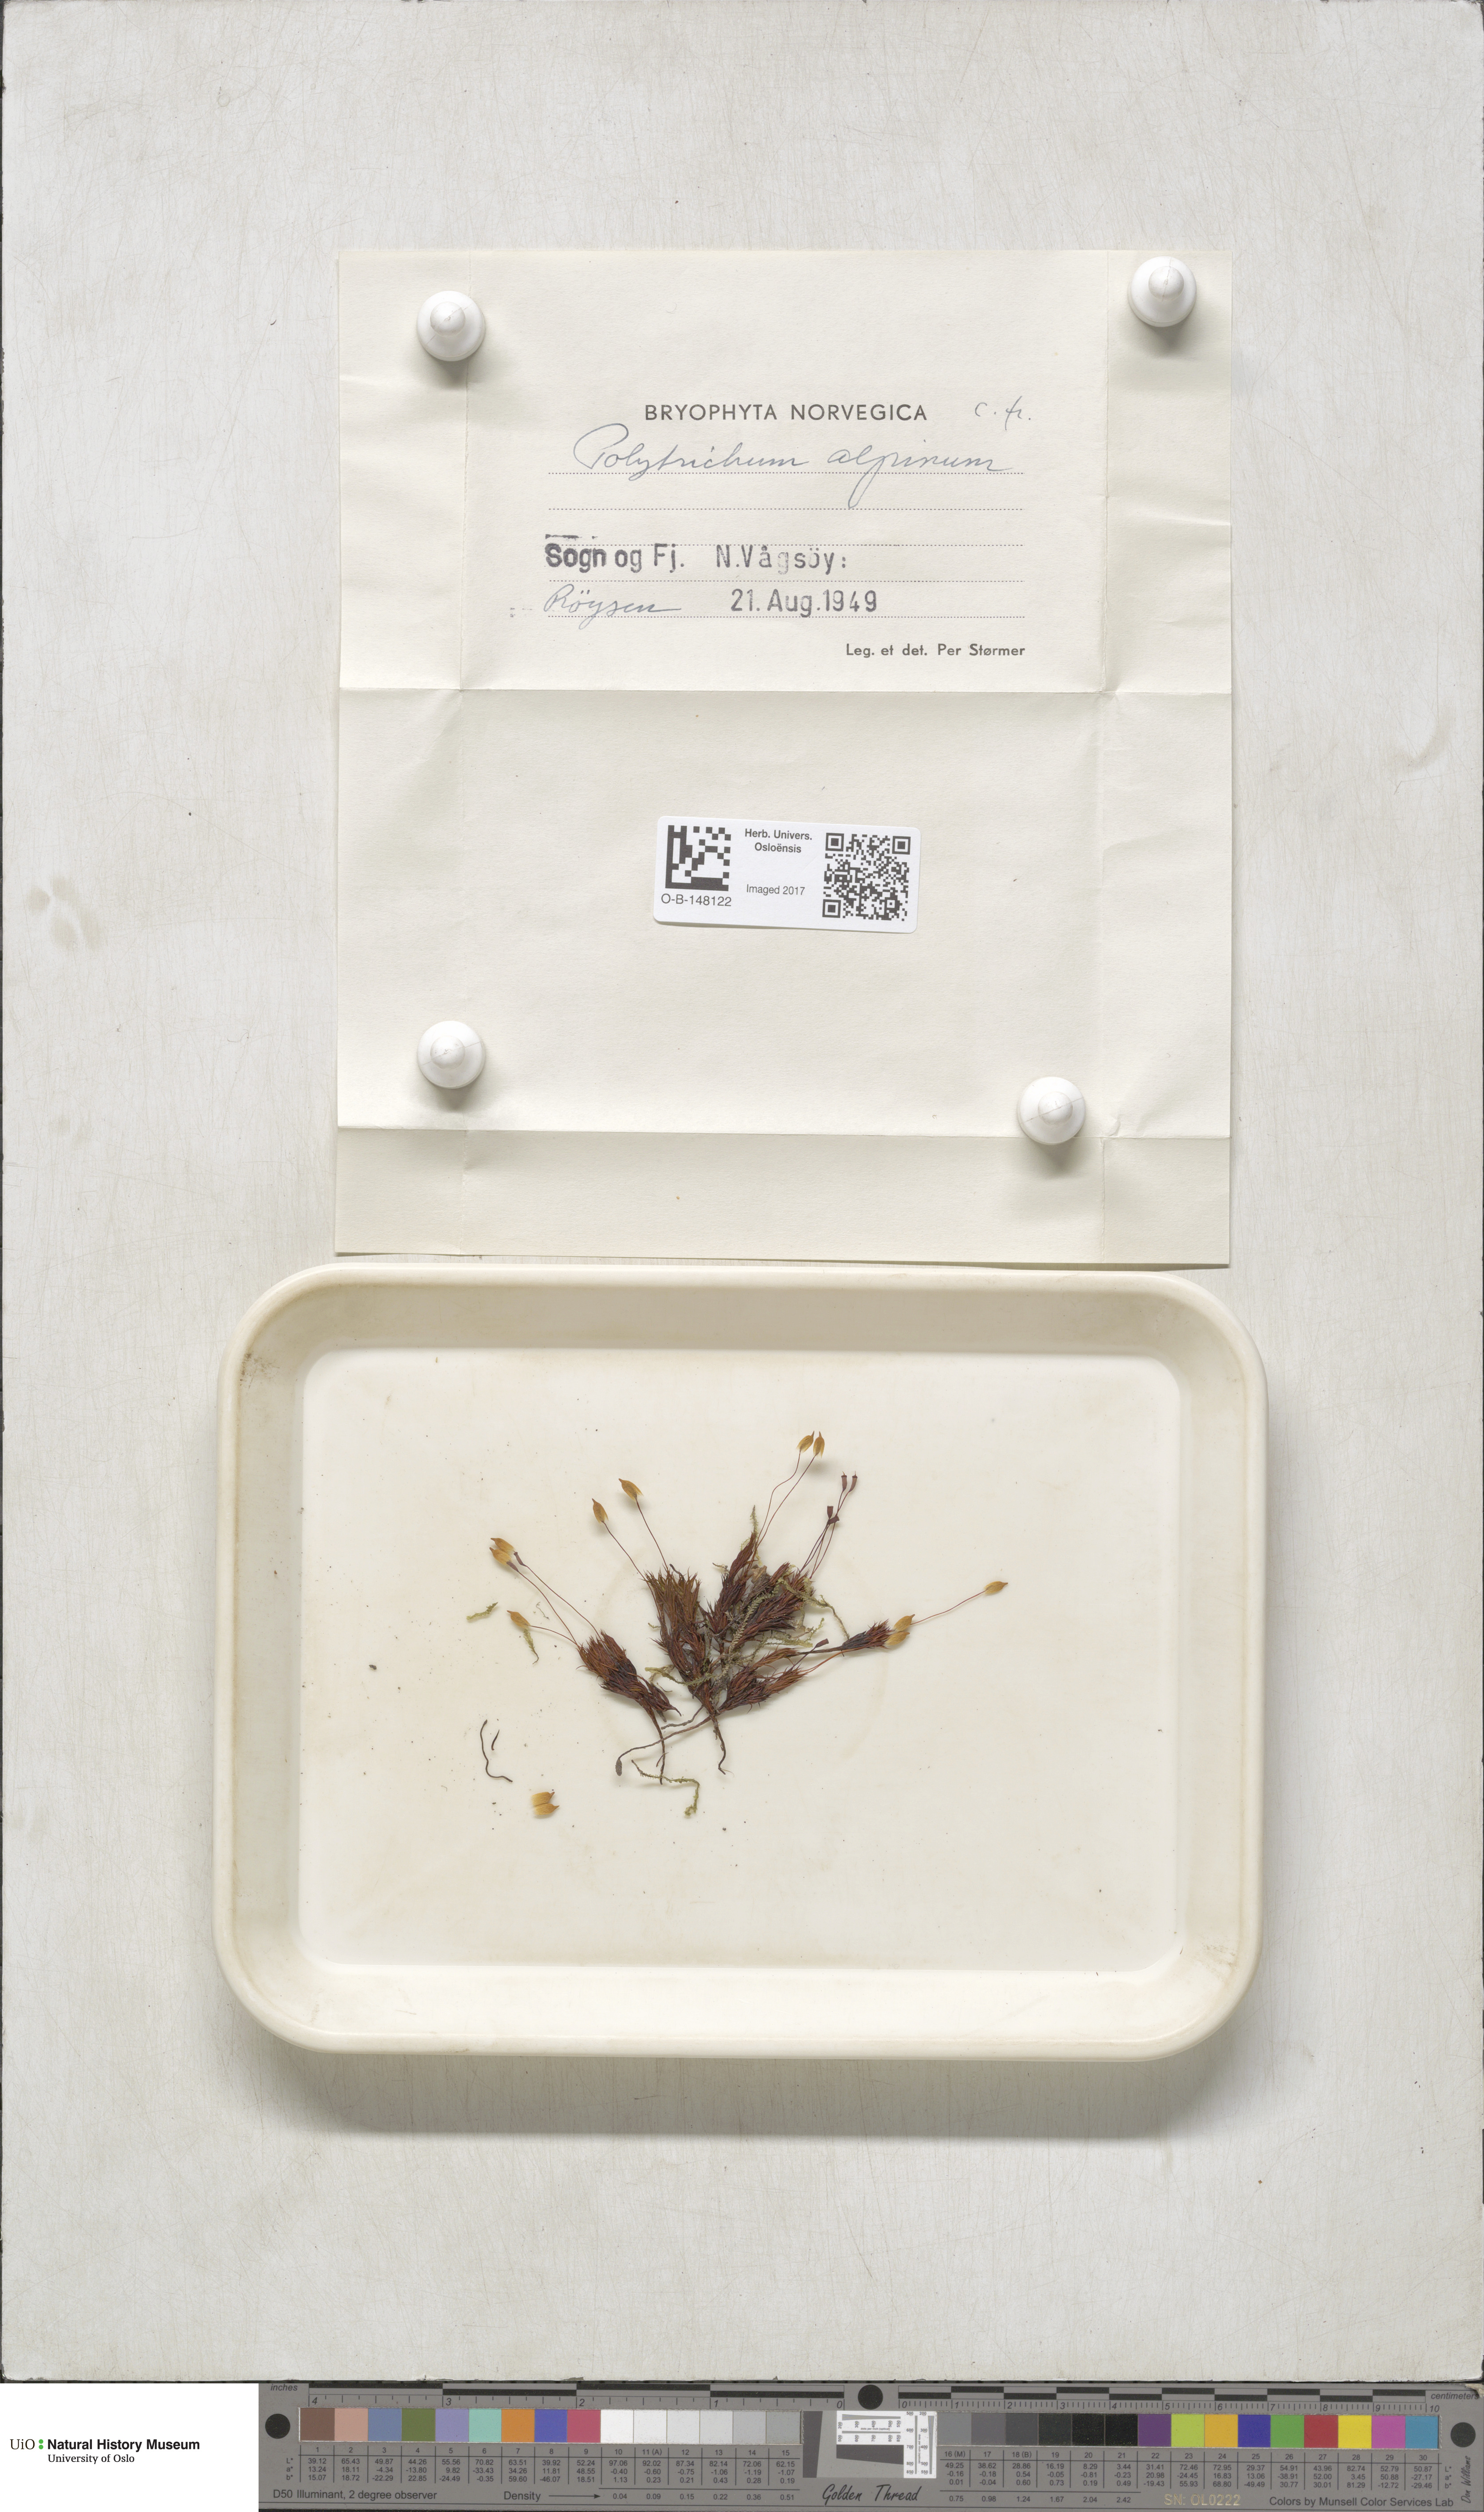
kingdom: Plantae
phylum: Bryophyta
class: Polytrichopsida
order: Polytrichales
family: Polytrichaceae
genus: Polytrichastrum
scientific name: Polytrichastrum alpinum
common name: Alpine haircap
